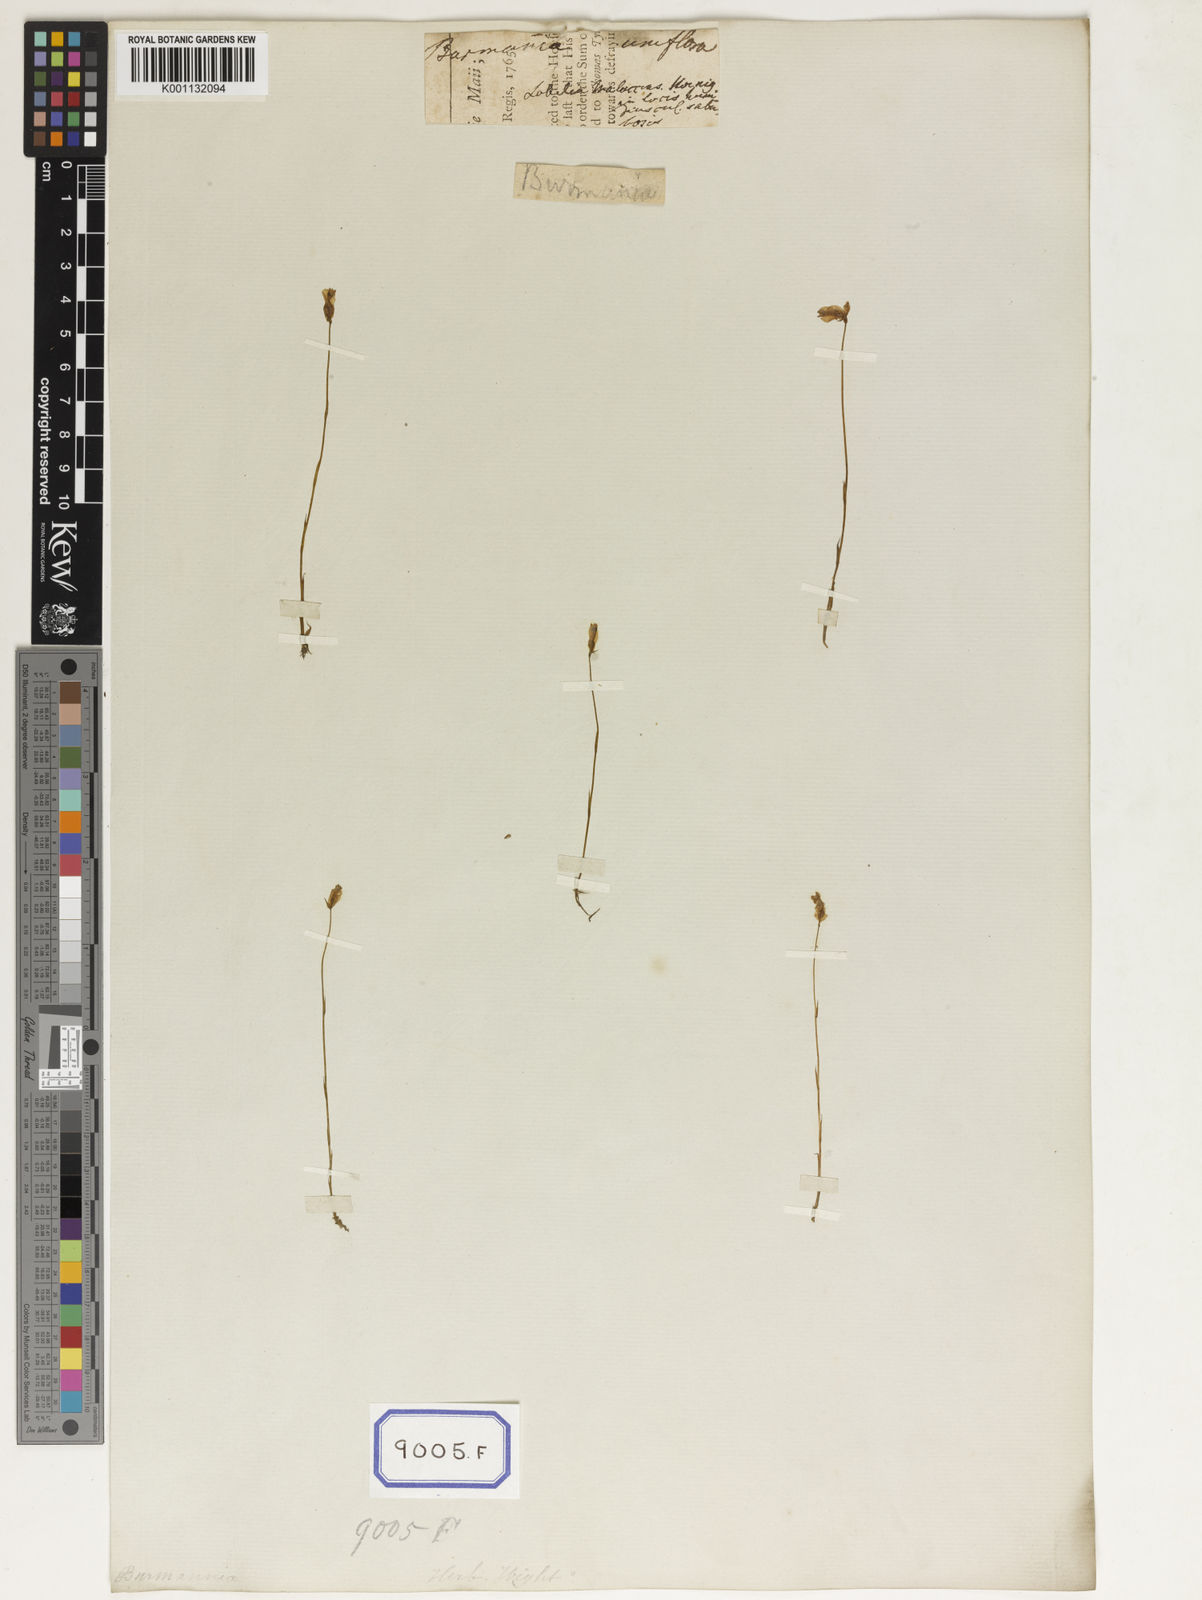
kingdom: Plantae
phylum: Tracheophyta
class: Liliopsida
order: Dioscoreales
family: Burmanniaceae
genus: Burmannia
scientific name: Burmannia
